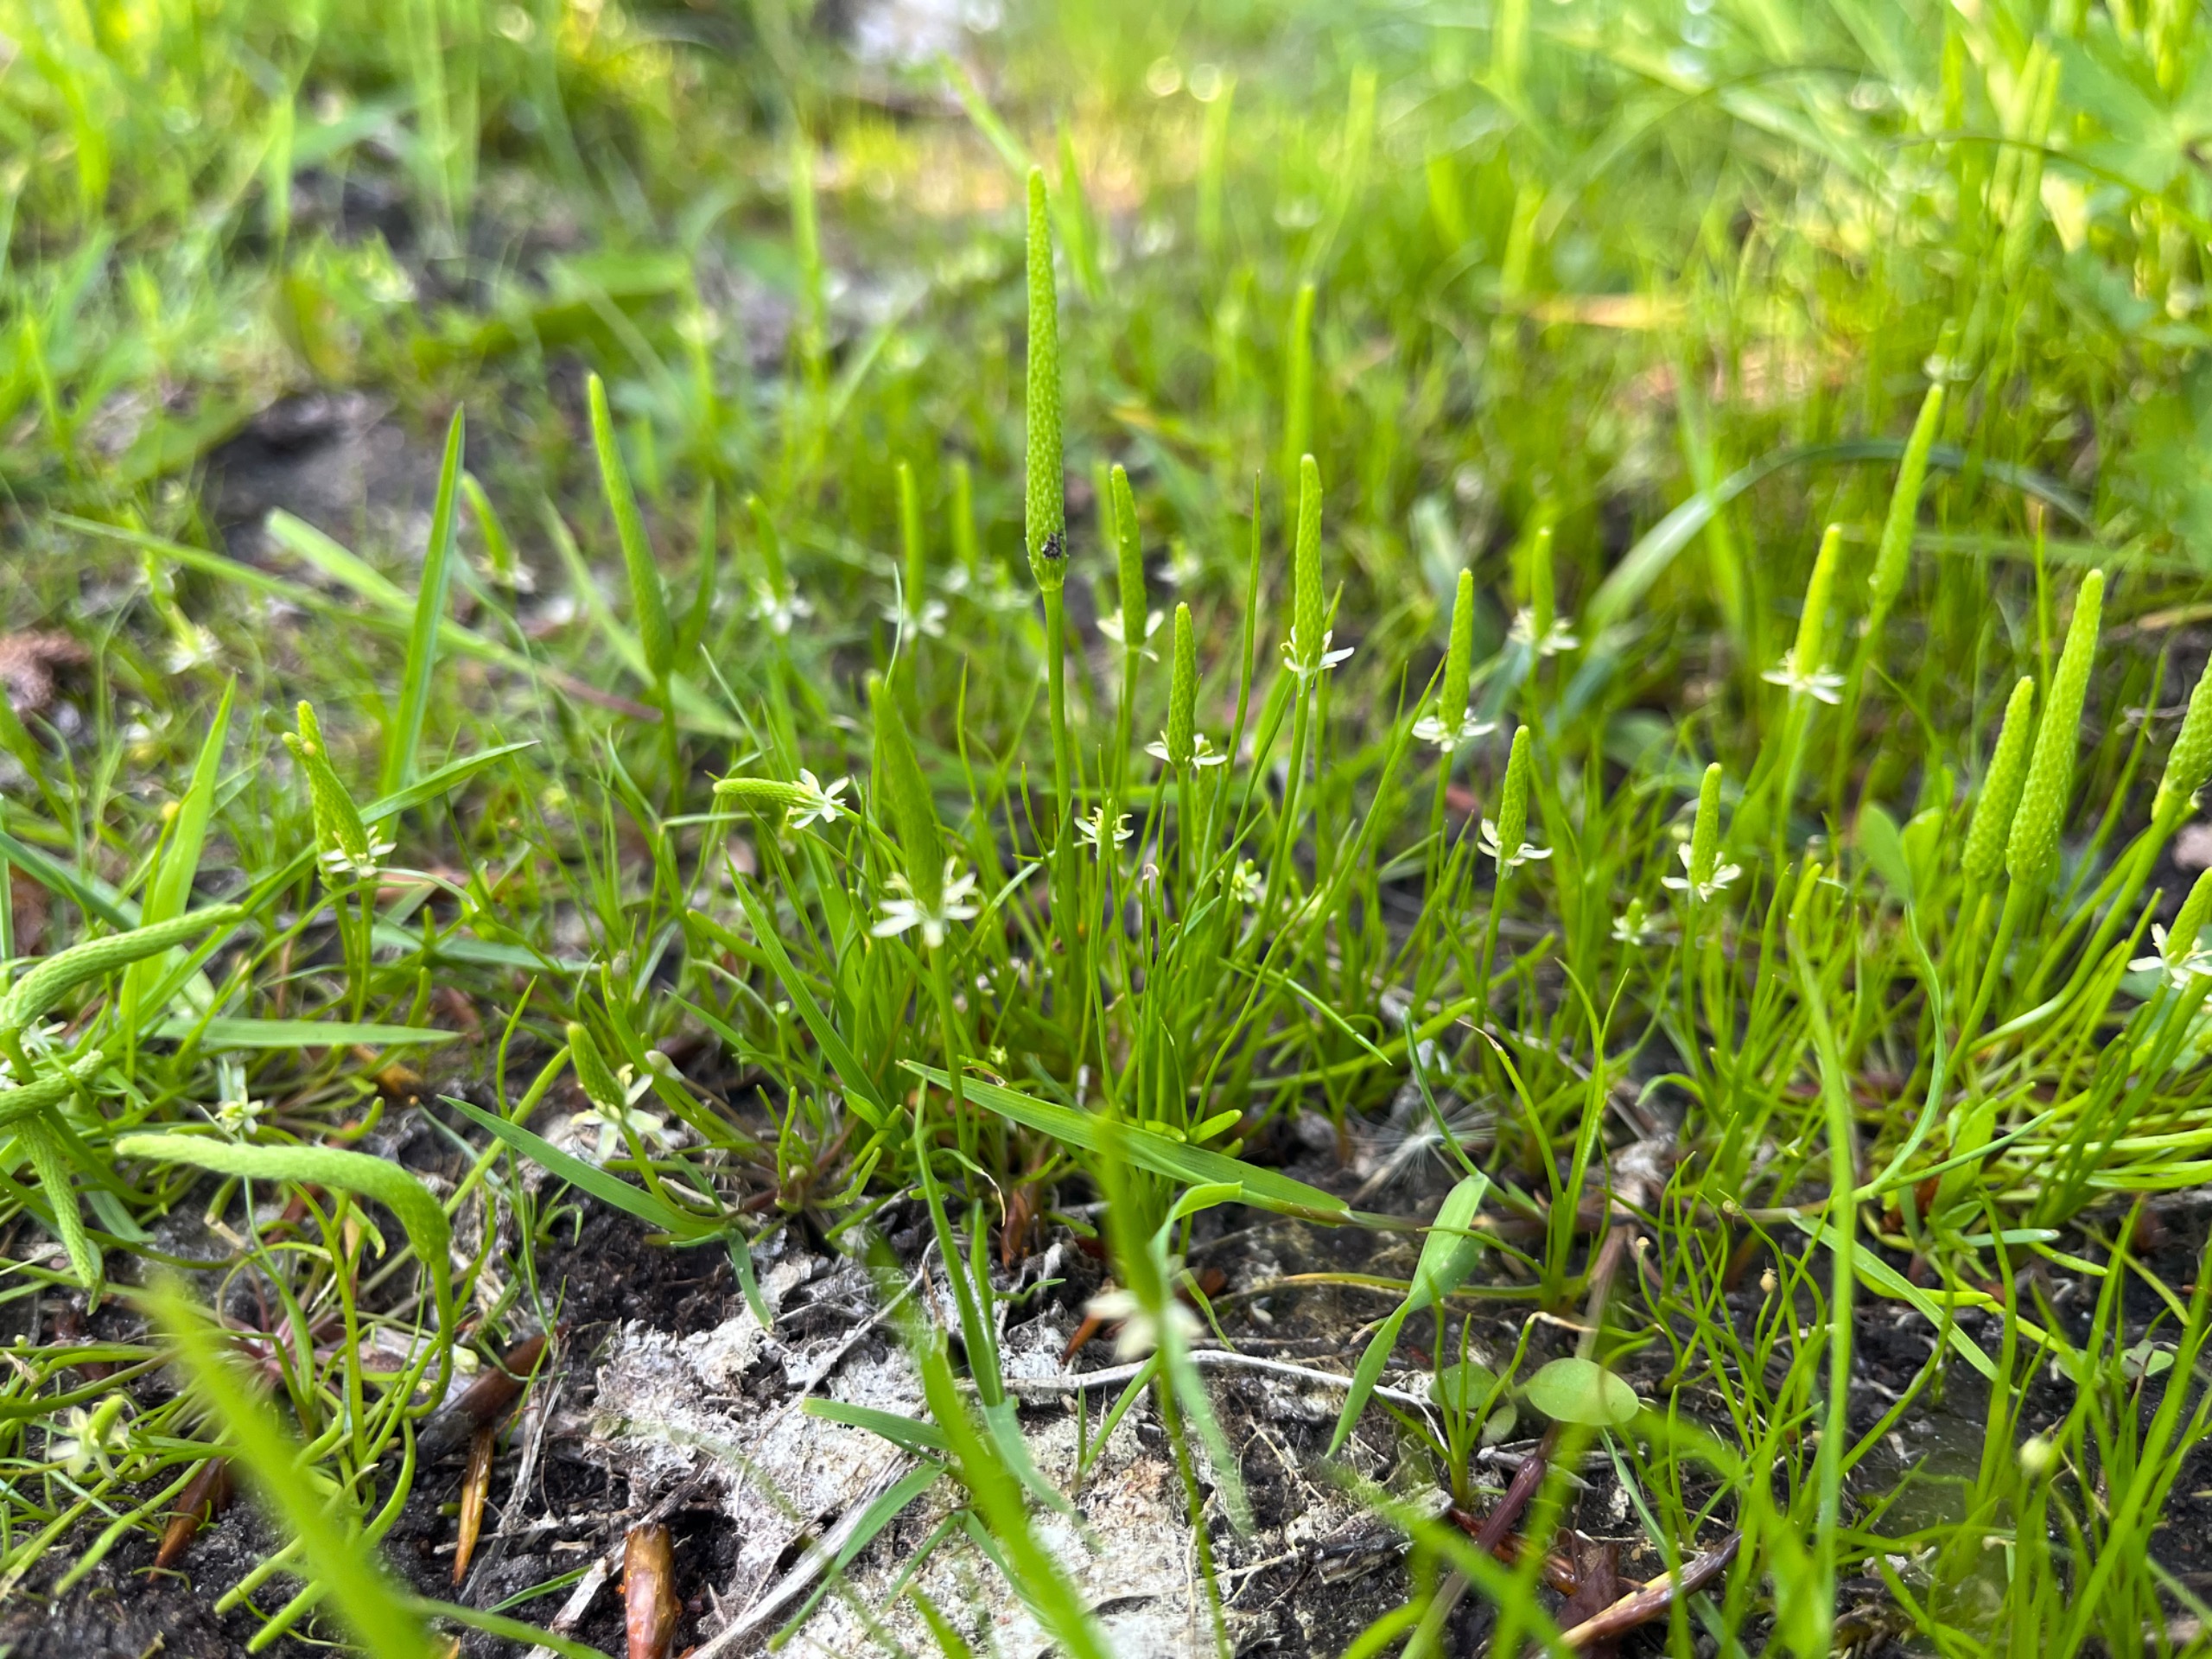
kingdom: Plantae
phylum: Tracheophyta
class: Magnoliopsida
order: Ranunculales
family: Ranunculaceae
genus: Myosurus
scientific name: Myosurus minimus
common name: Musehale
